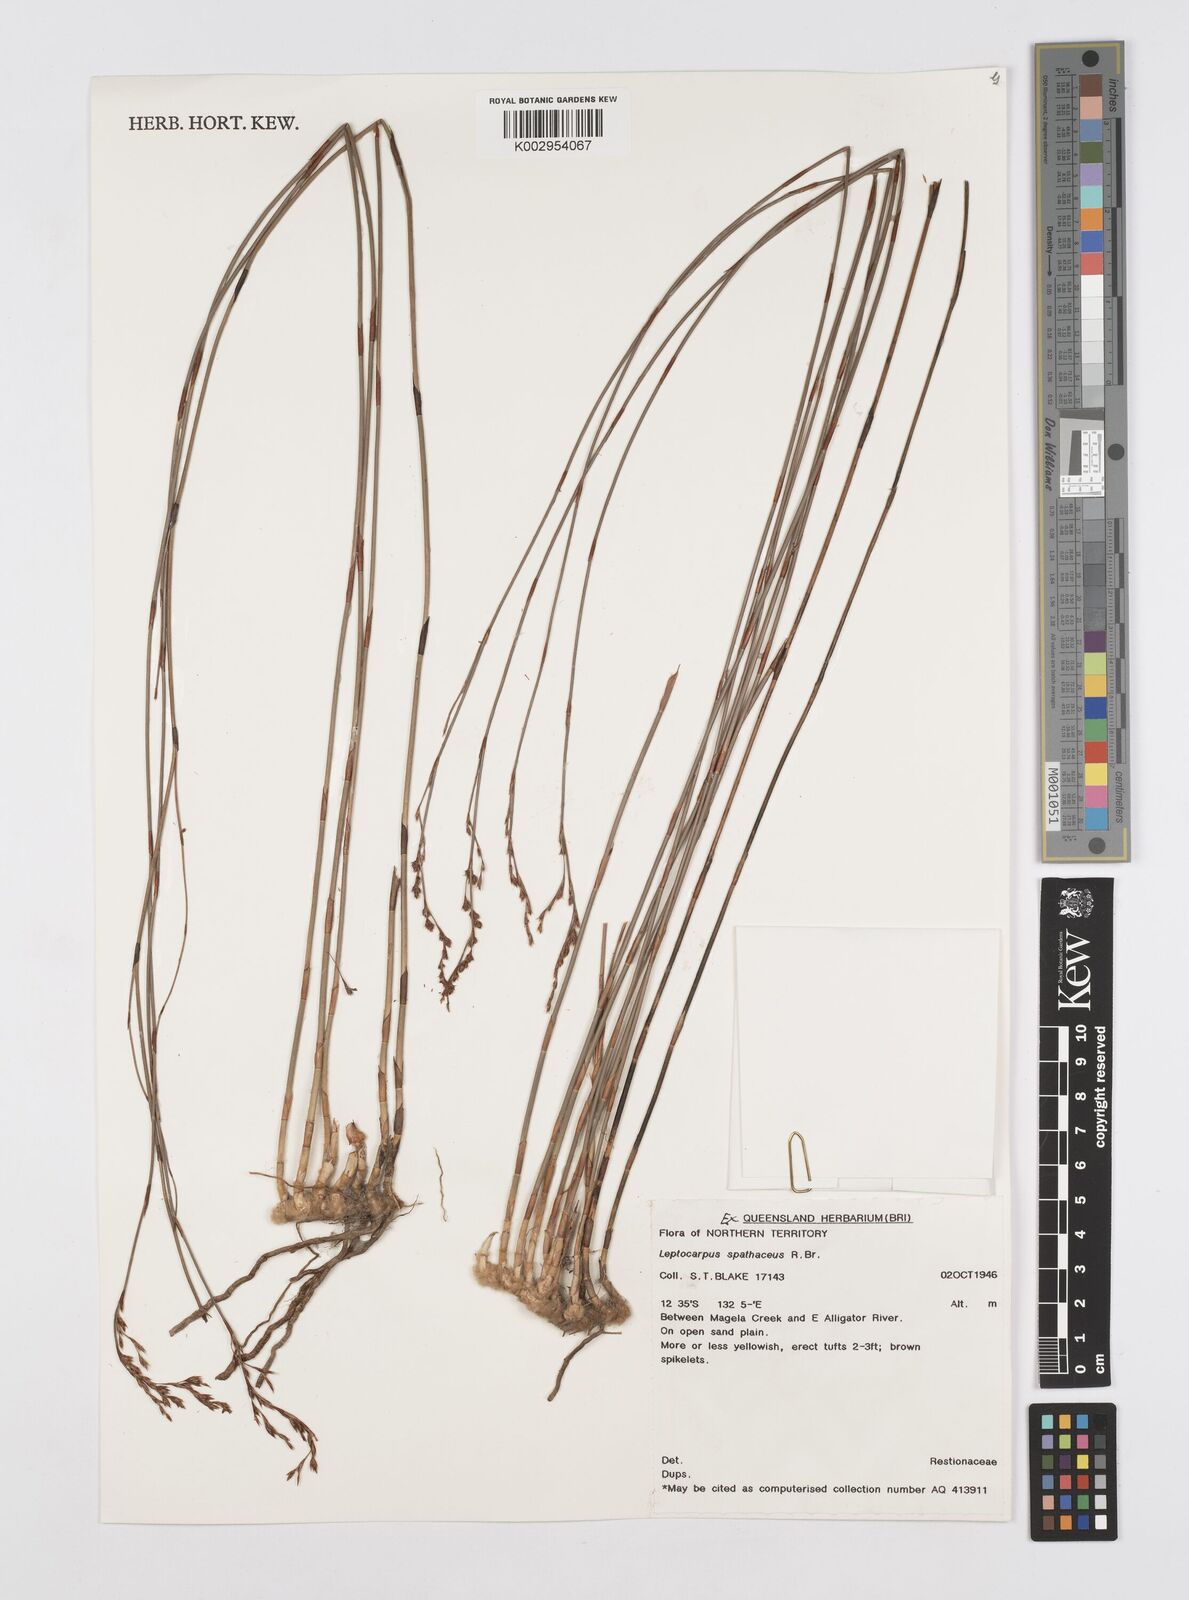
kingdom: Plantae
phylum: Tracheophyta
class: Liliopsida
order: Poales
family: Restionaceae
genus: Dapsilanthus
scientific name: Dapsilanthus spathaceus
